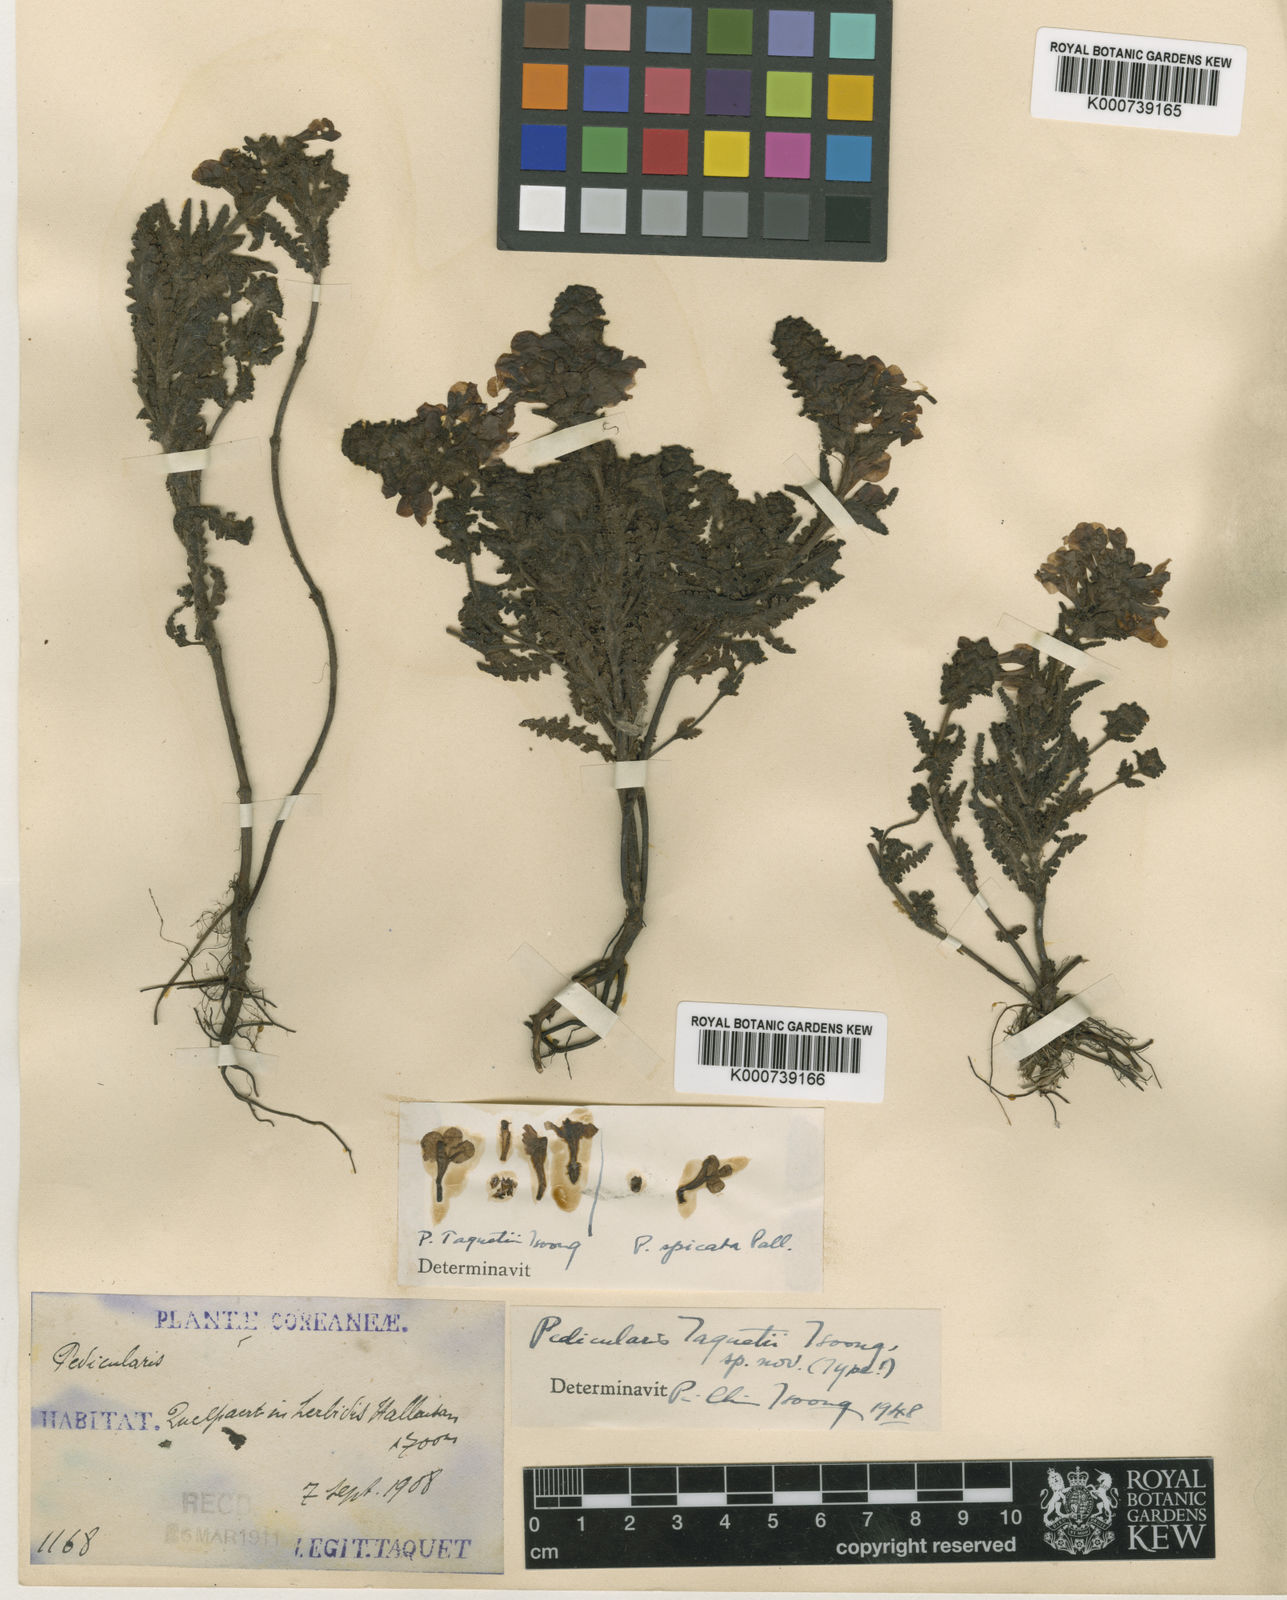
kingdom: Plantae
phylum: Tracheophyta
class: Magnoliopsida
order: Lamiales
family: Orobanchaceae
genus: Pedicularis
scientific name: Pedicularis verticillata
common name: Whorled lousewort
